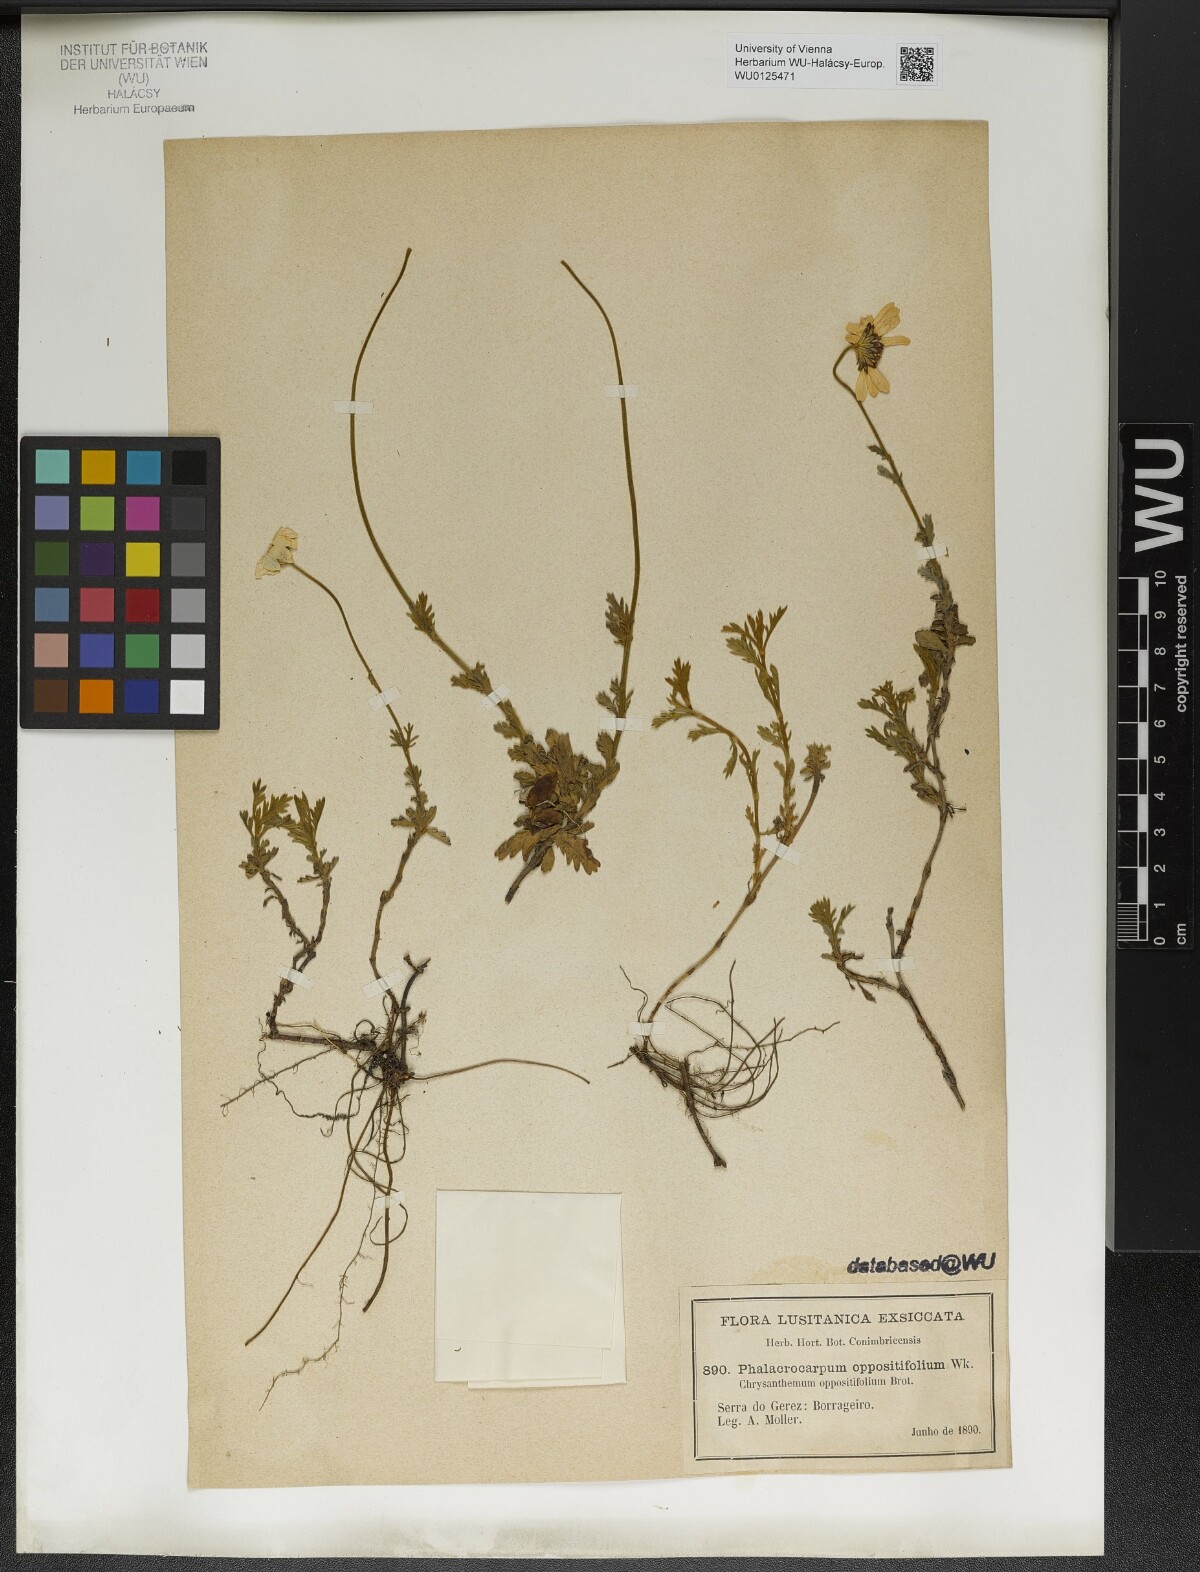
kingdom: Plantae
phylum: Tracheophyta
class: Magnoliopsida
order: Asterales
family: Asteraceae
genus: Phalacrocarpum
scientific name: Phalacrocarpum oppositifolium
